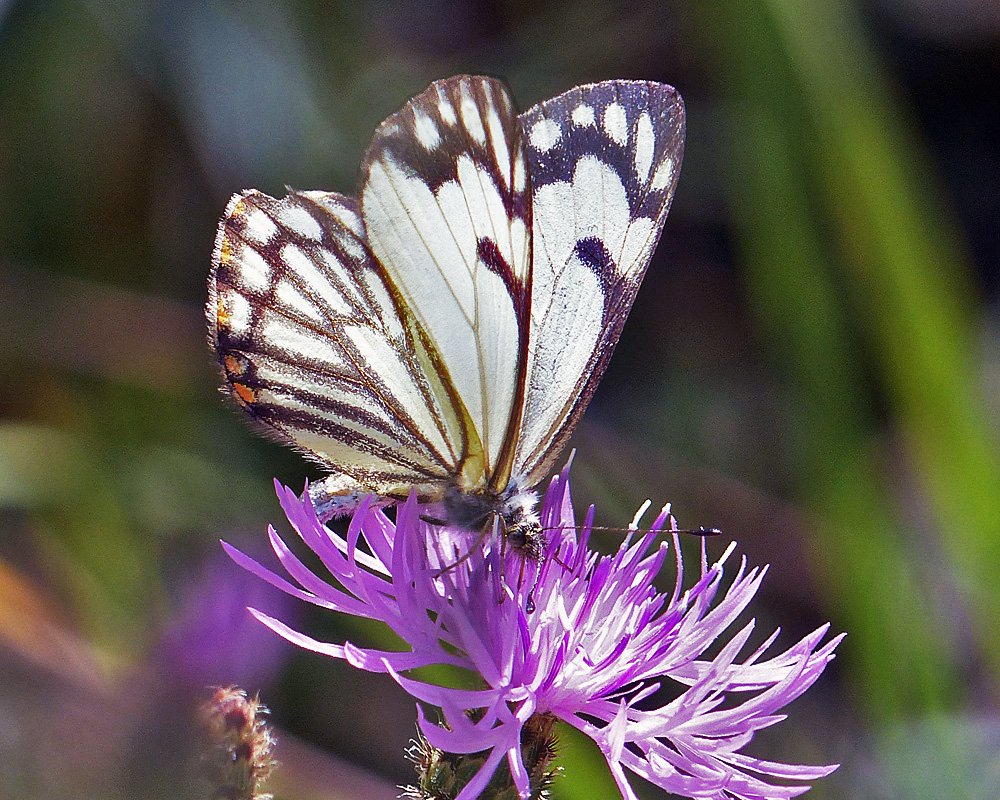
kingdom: Animalia
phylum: Arthropoda
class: Insecta
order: Lepidoptera
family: Pieridae
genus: Neophasia
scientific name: Neophasia menapia
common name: Pine White
